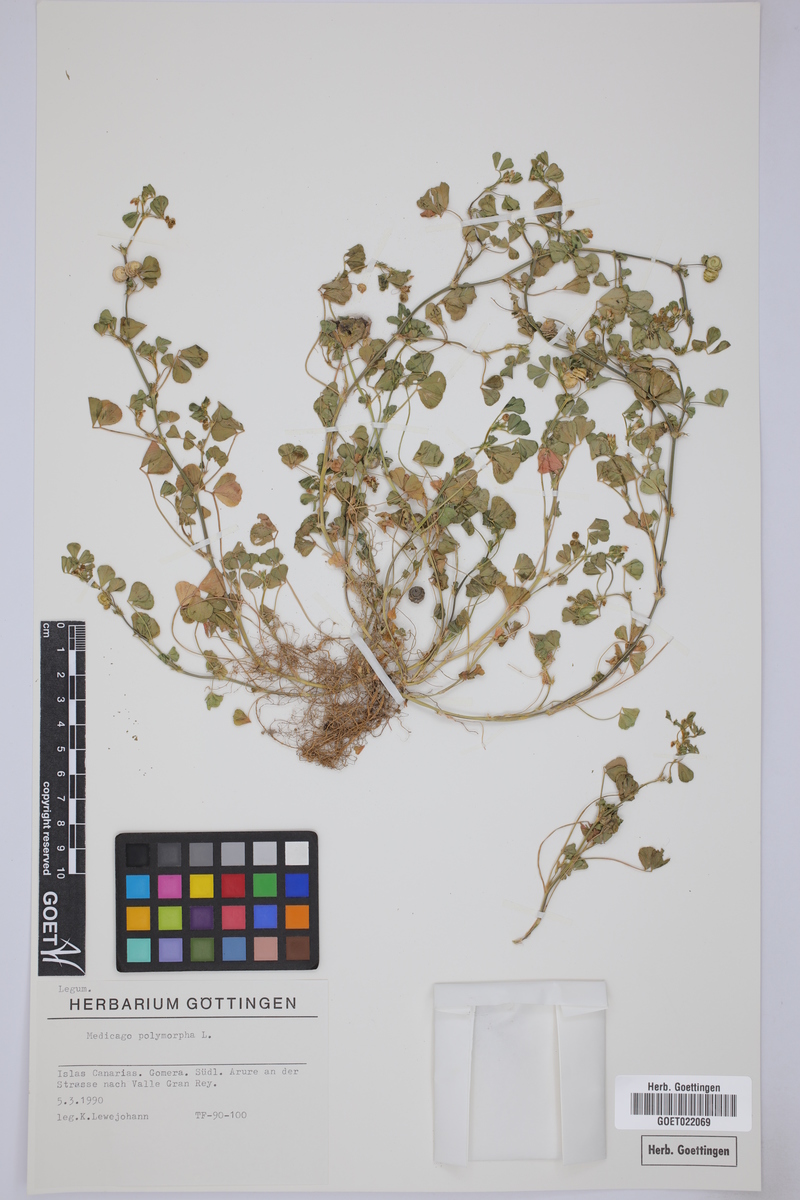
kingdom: Plantae
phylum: Tracheophyta
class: Magnoliopsida
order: Fabales
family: Fabaceae
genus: Medicago
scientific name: Medicago polymorpha
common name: Burclover
